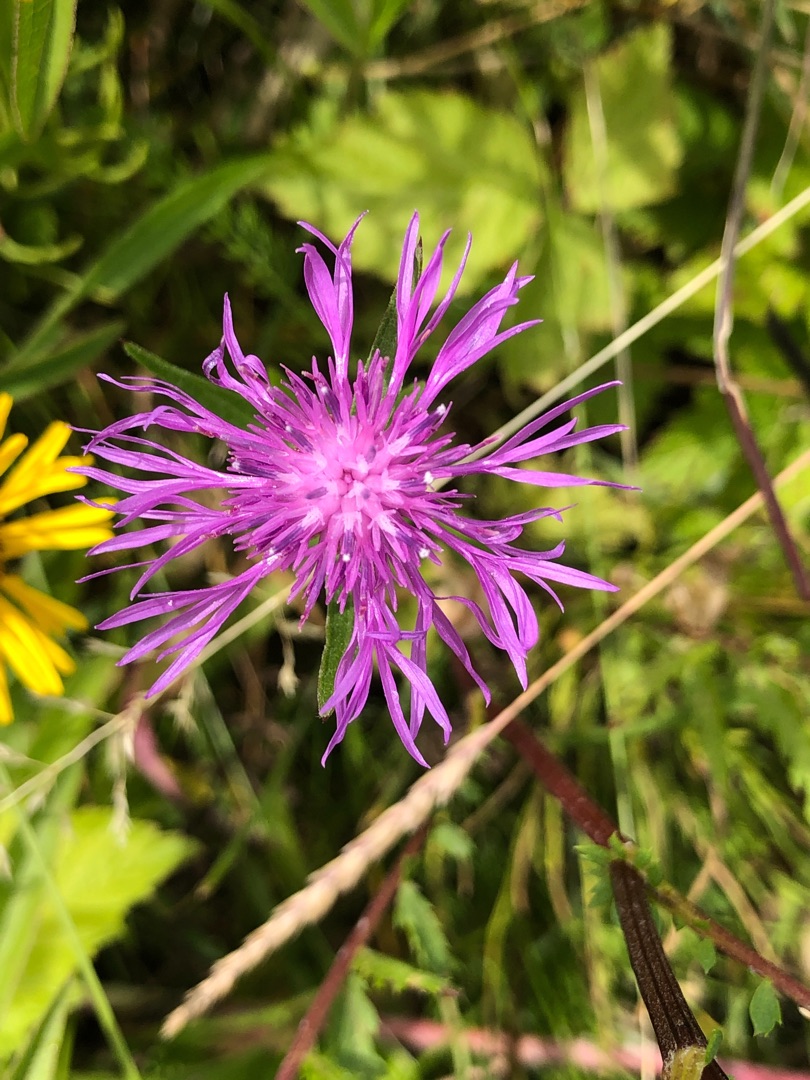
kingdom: Plantae
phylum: Tracheophyta
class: Magnoliopsida
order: Asterales
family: Asteraceae
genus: Centaurea
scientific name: Centaurea jacea
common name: Almindelig knopurt
